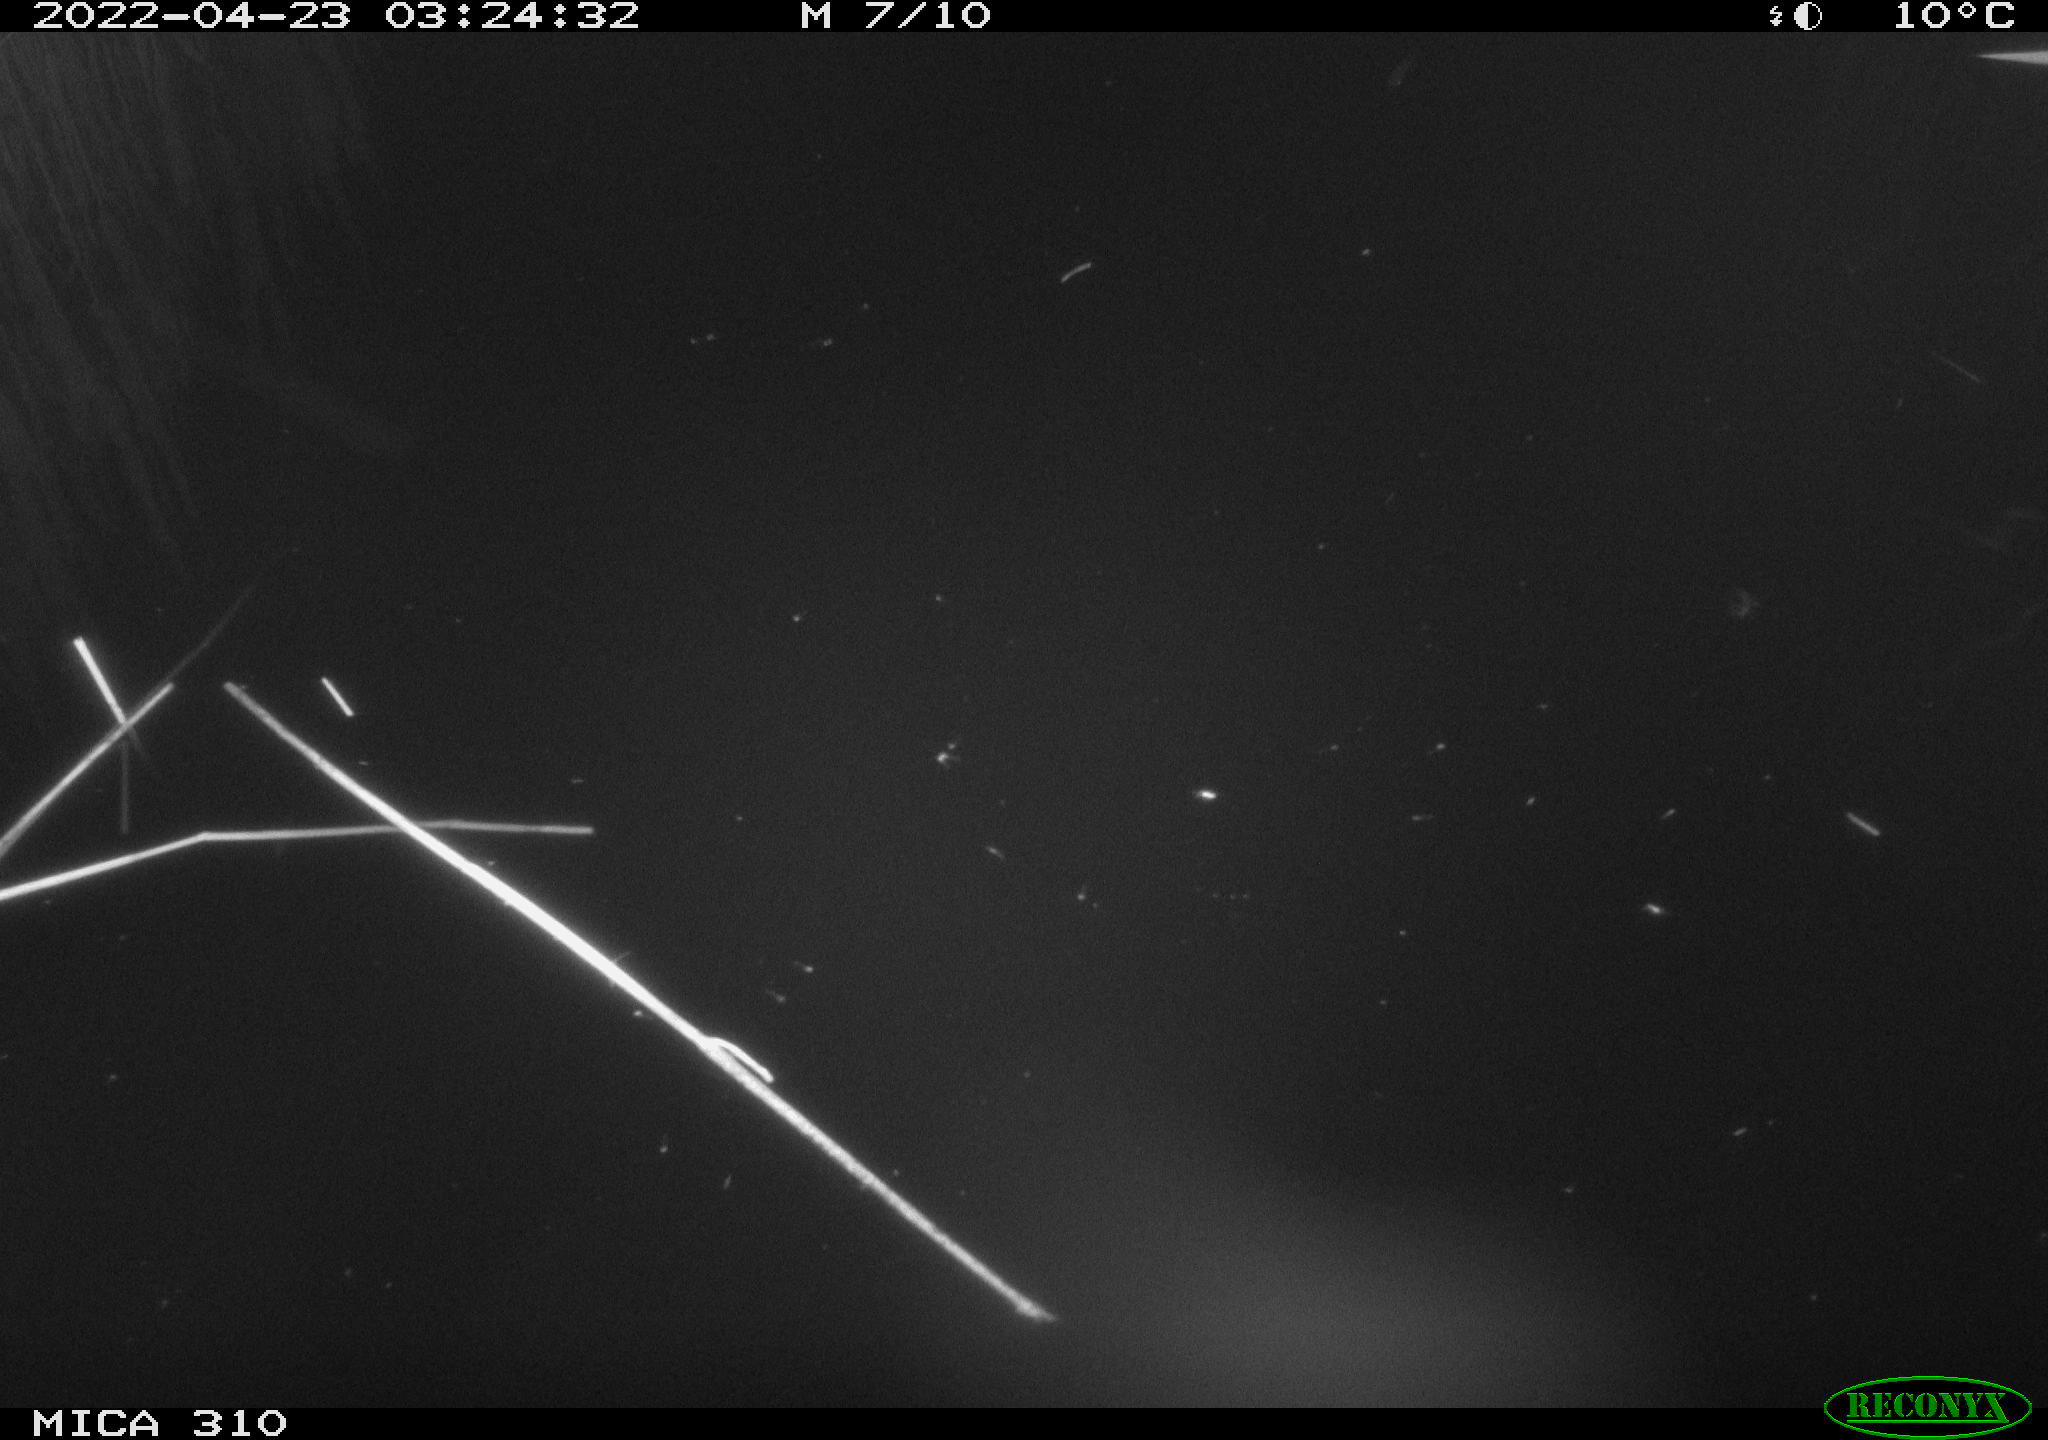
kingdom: Animalia
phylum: Chordata
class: Aves
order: Anseriformes
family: Anatidae
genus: Anas
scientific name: Anas platyrhynchos
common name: Mallard
